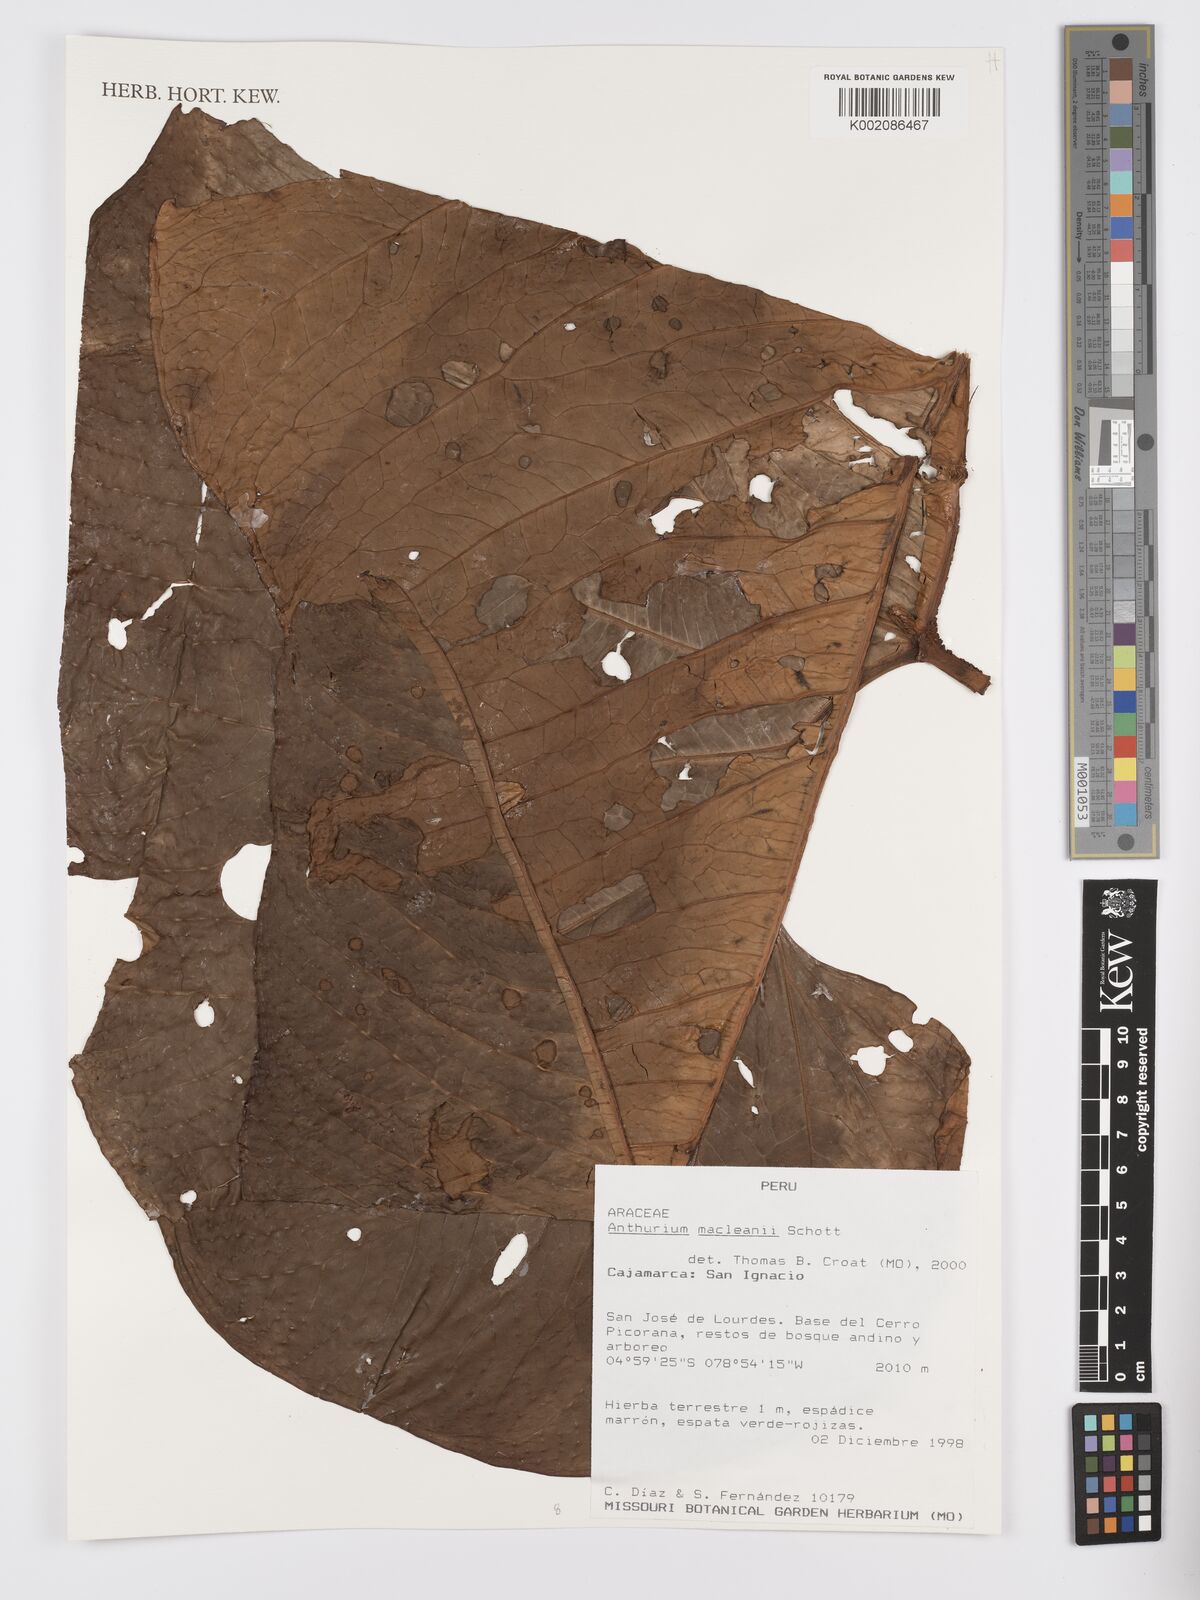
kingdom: Plantae
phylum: Tracheophyta
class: Liliopsida
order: Alismatales
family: Araceae
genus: Anthurium
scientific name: Anthurium macleanii
